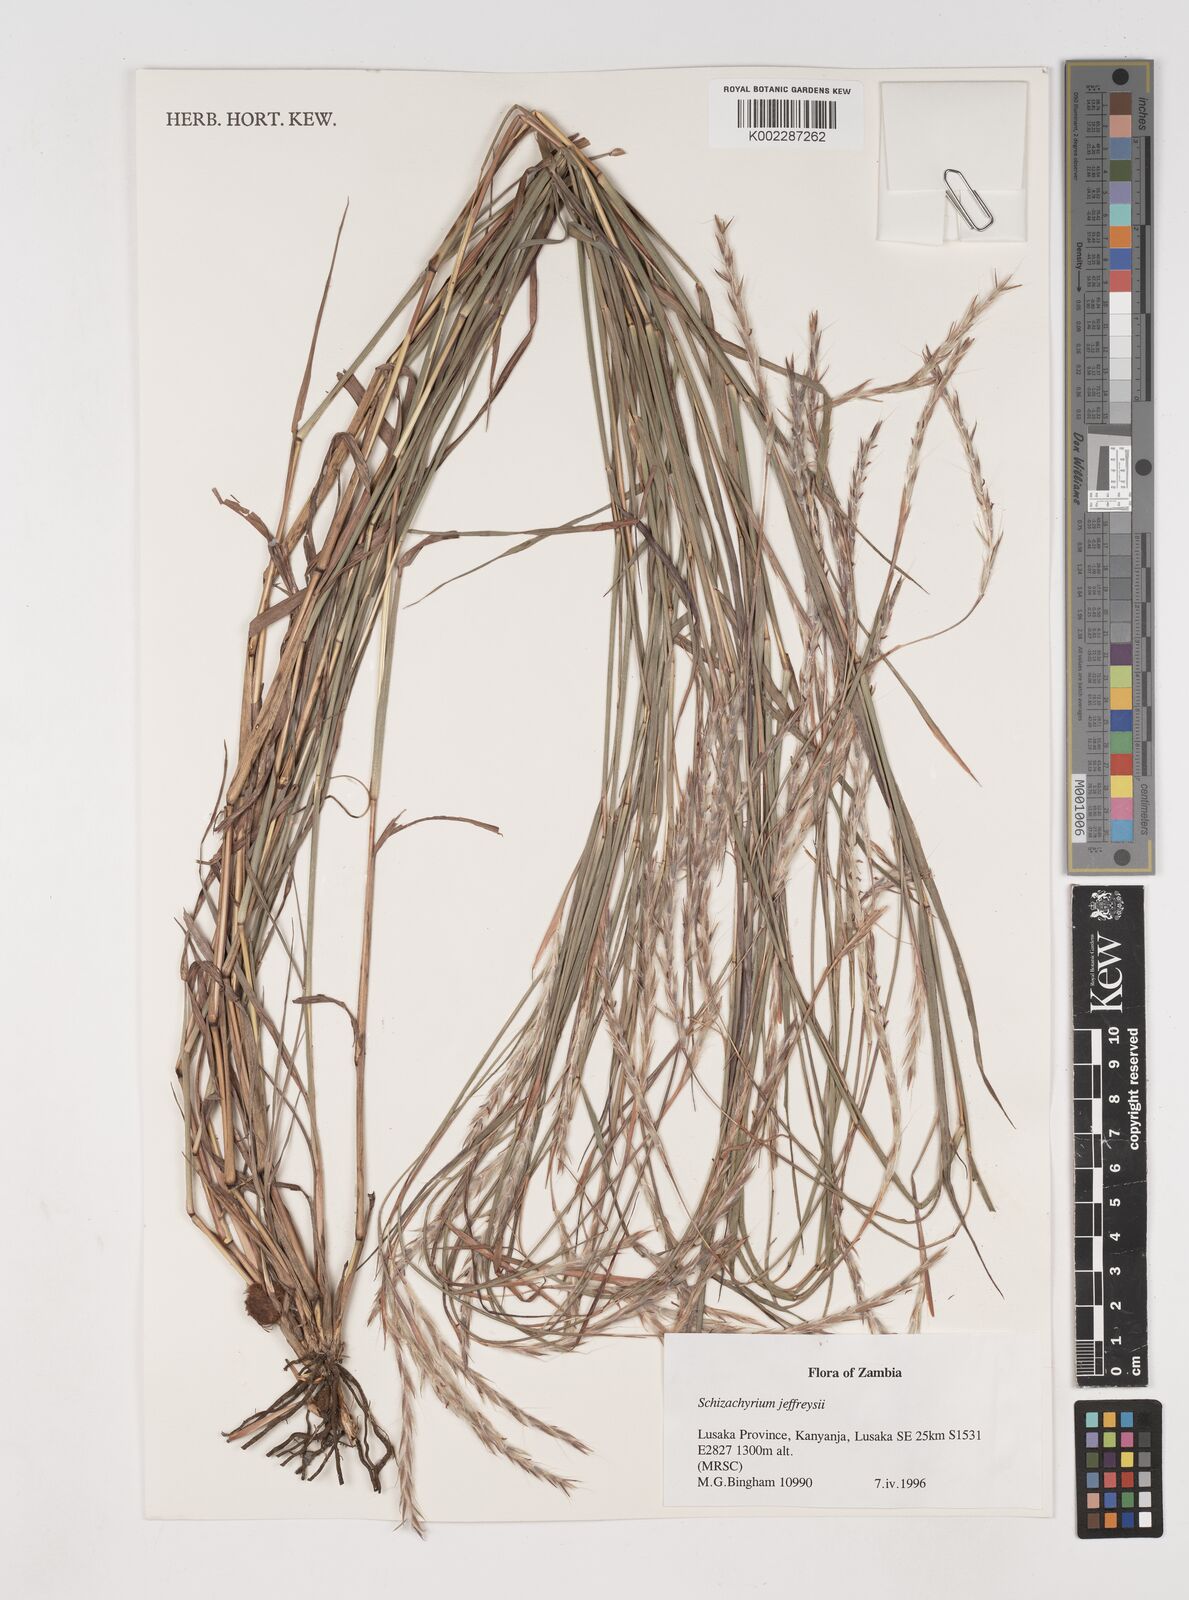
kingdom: Plantae
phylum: Tracheophyta
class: Liliopsida
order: Poales
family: Poaceae
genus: Schizachyrium
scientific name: Schizachyrium jeffreysii
